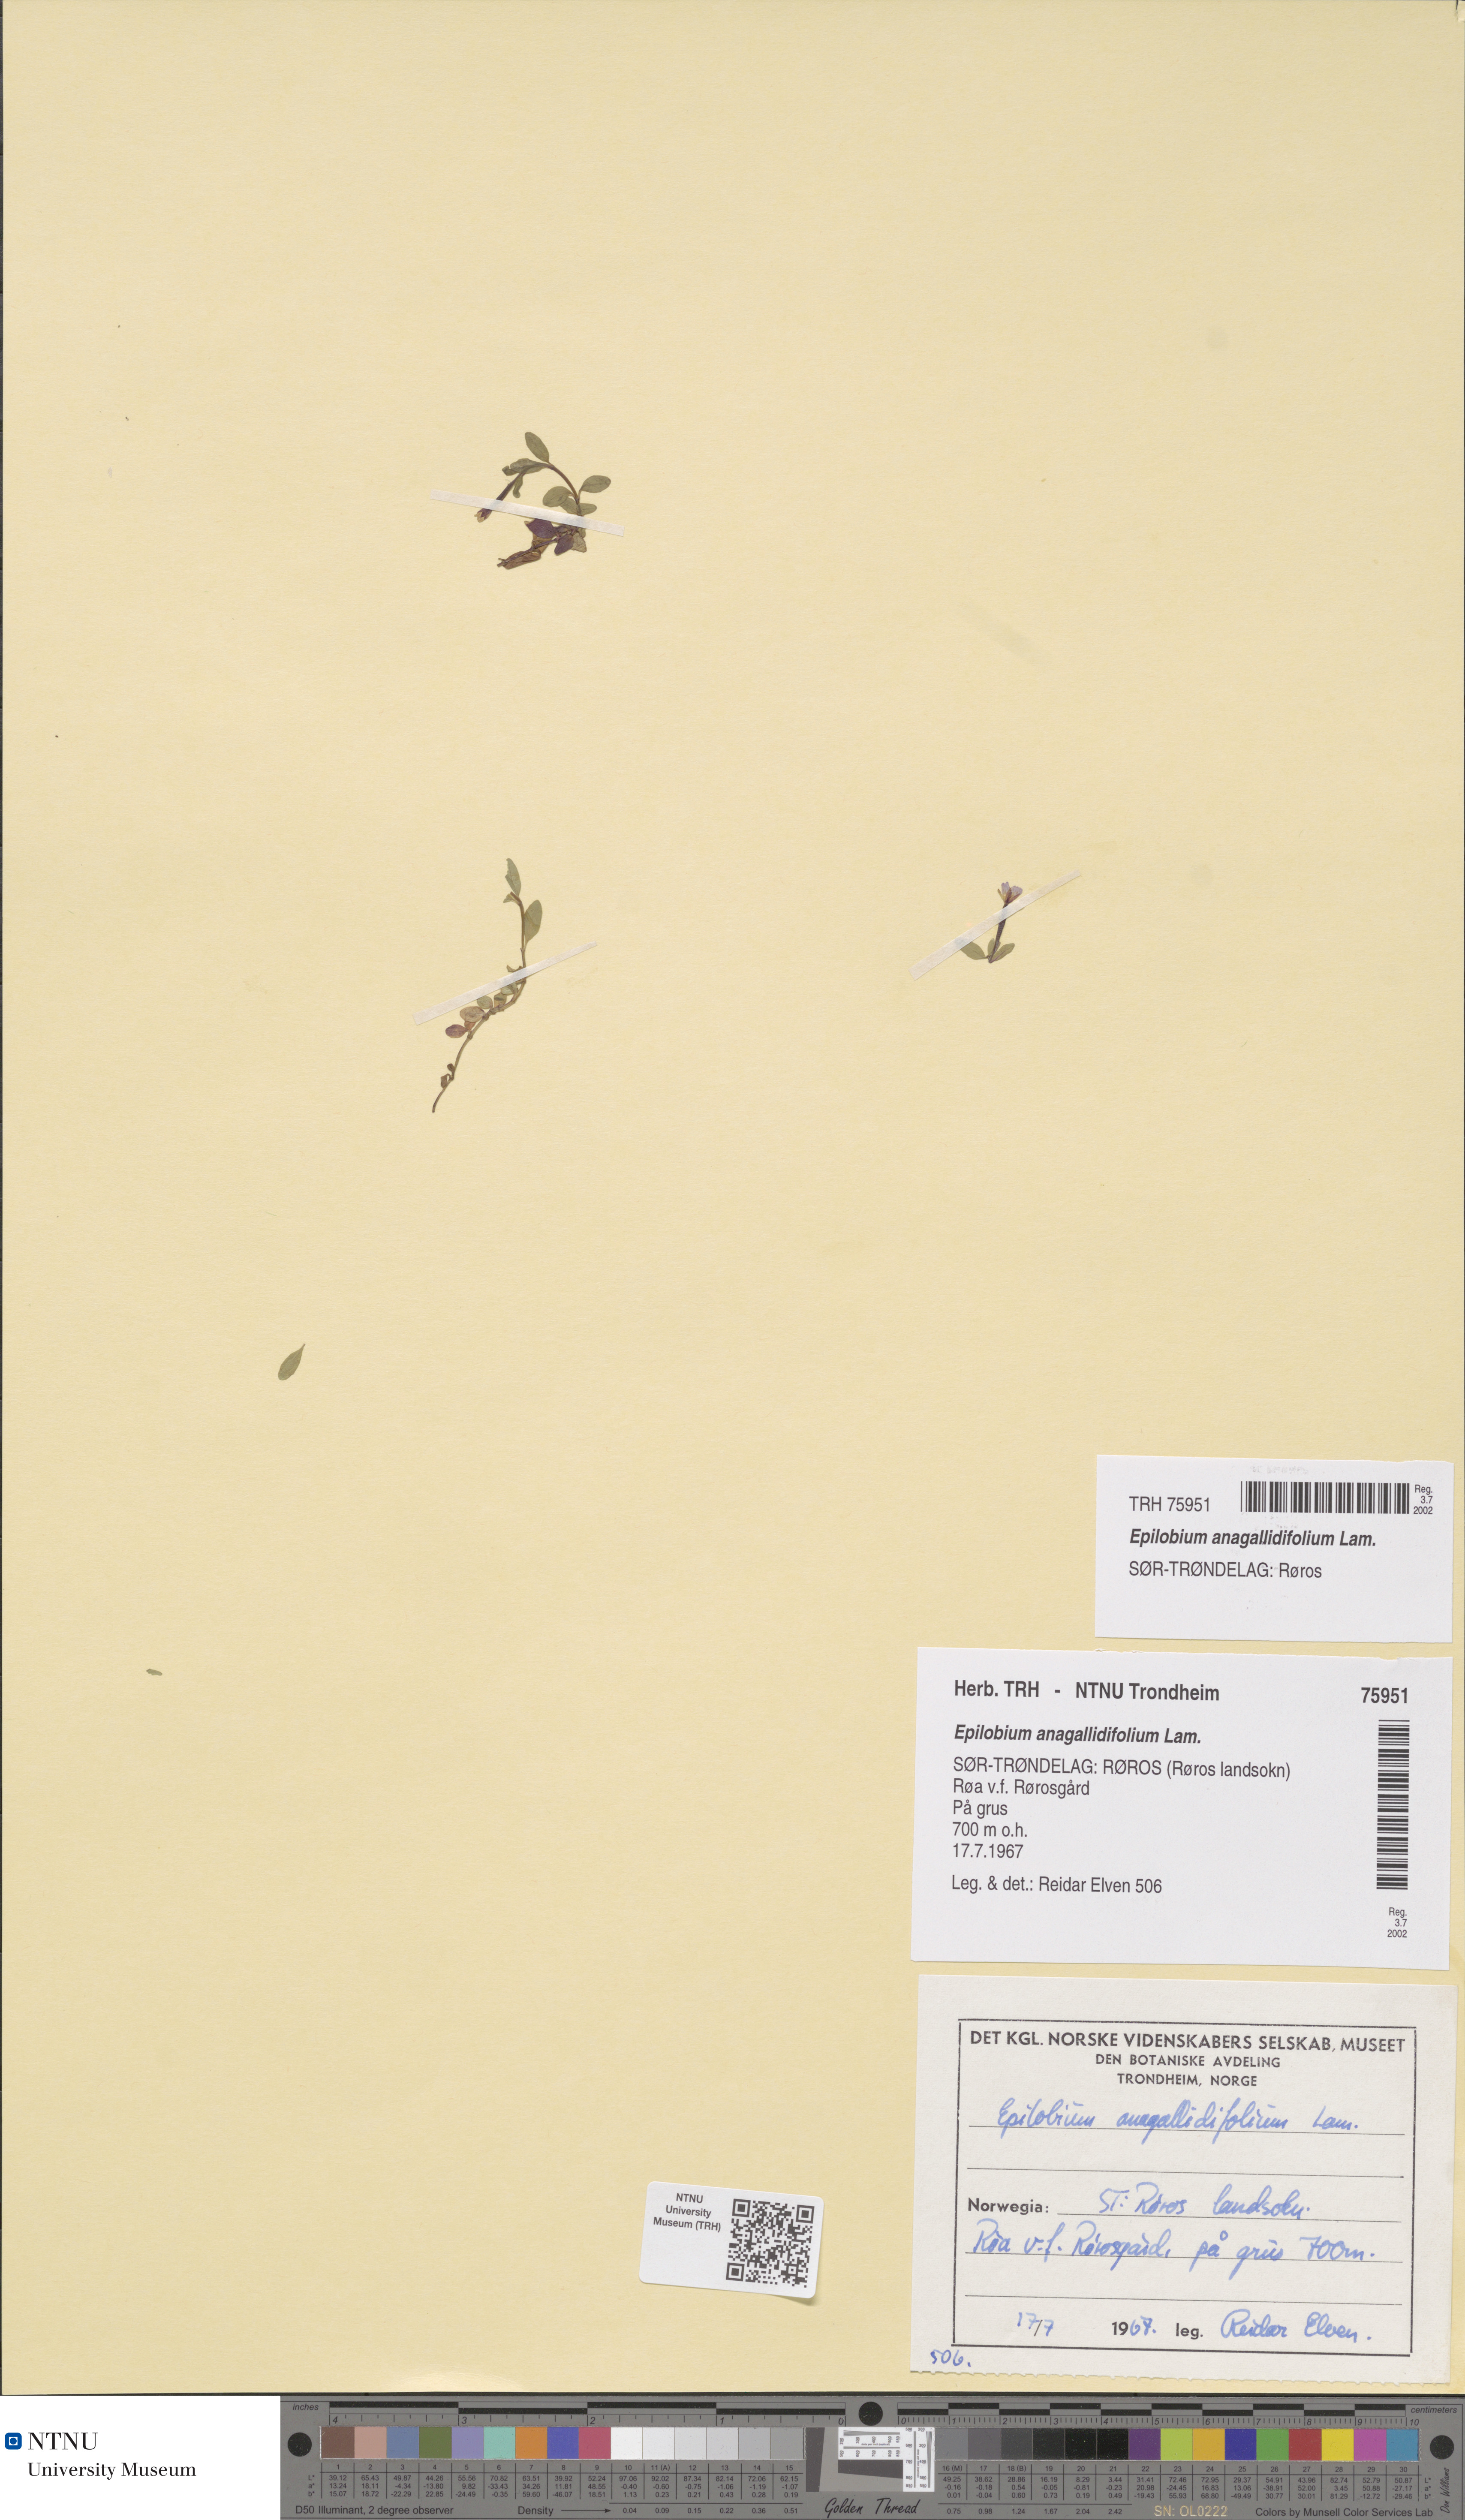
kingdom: Plantae
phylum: Tracheophyta
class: Magnoliopsida
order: Myrtales
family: Onagraceae
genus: Epilobium
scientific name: Epilobium anagallidifolium
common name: Alpine willowherb
